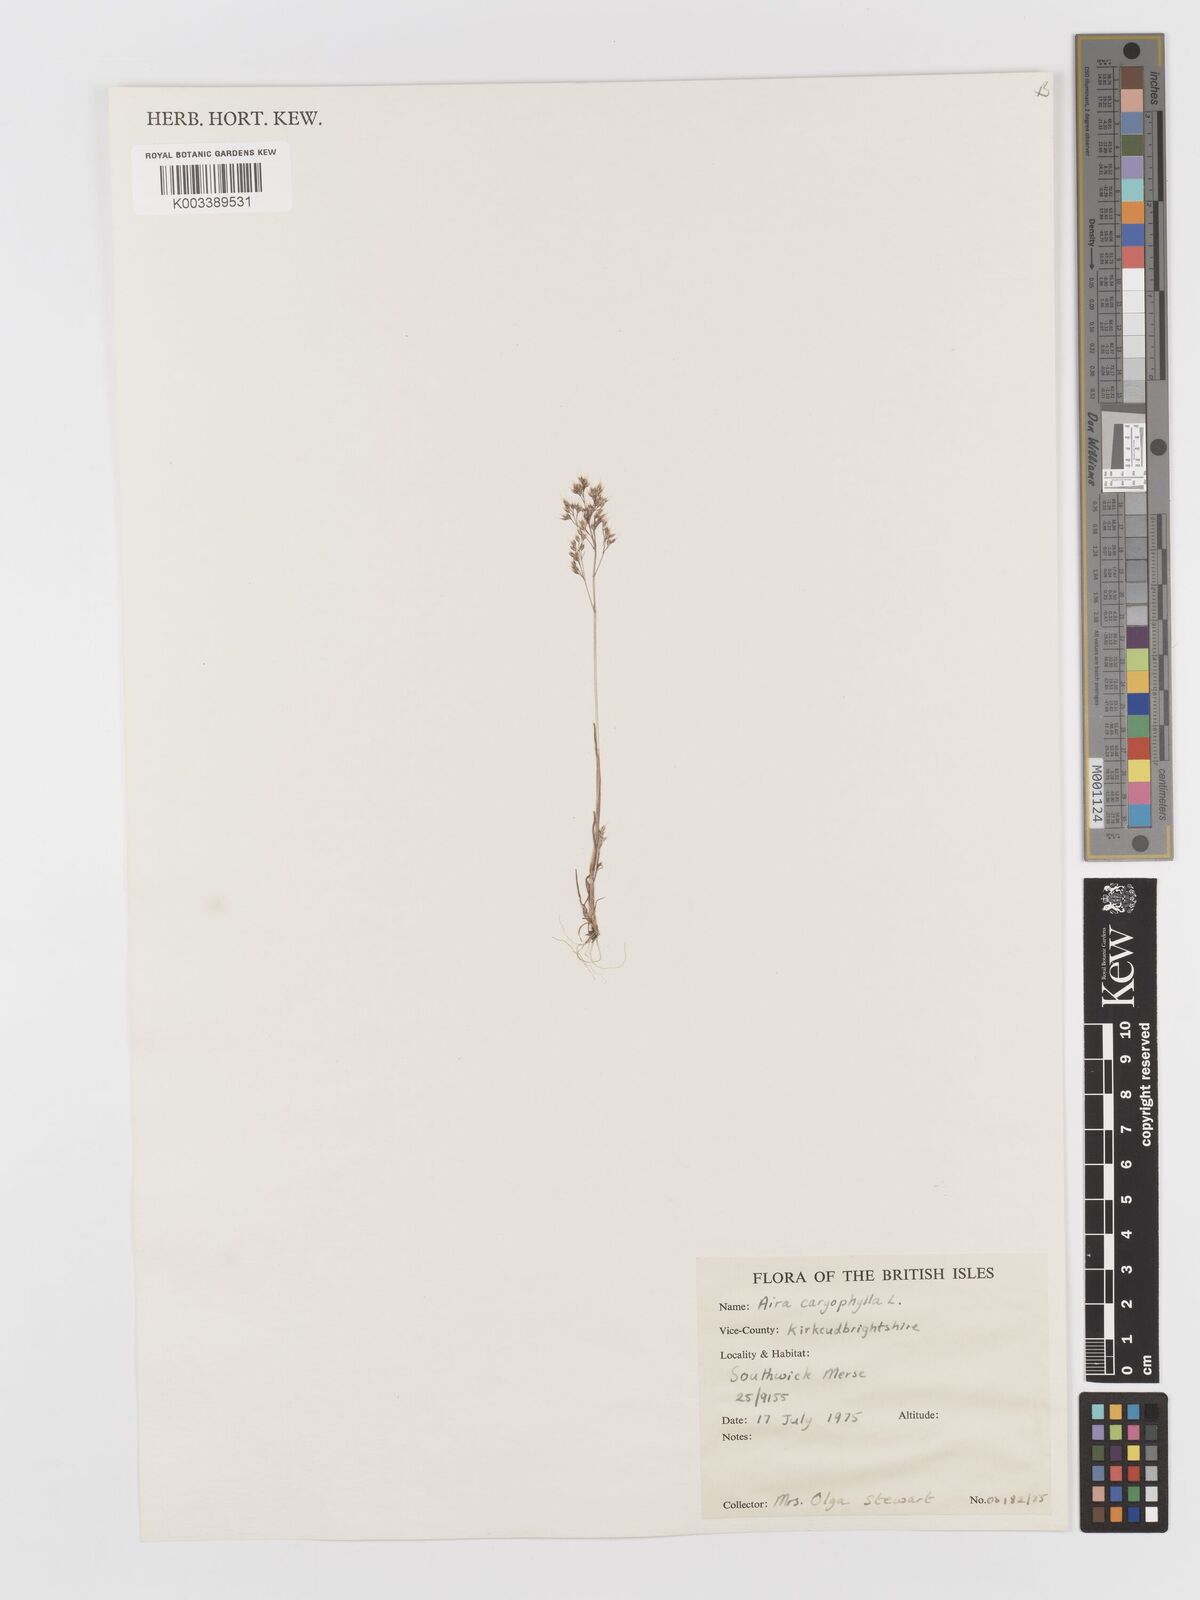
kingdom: Plantae
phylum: Tracheophyta
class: Liliopsida
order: Poales
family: Poaceae
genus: Aira
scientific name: Aira caryophyllea
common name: Silver hairgrass
